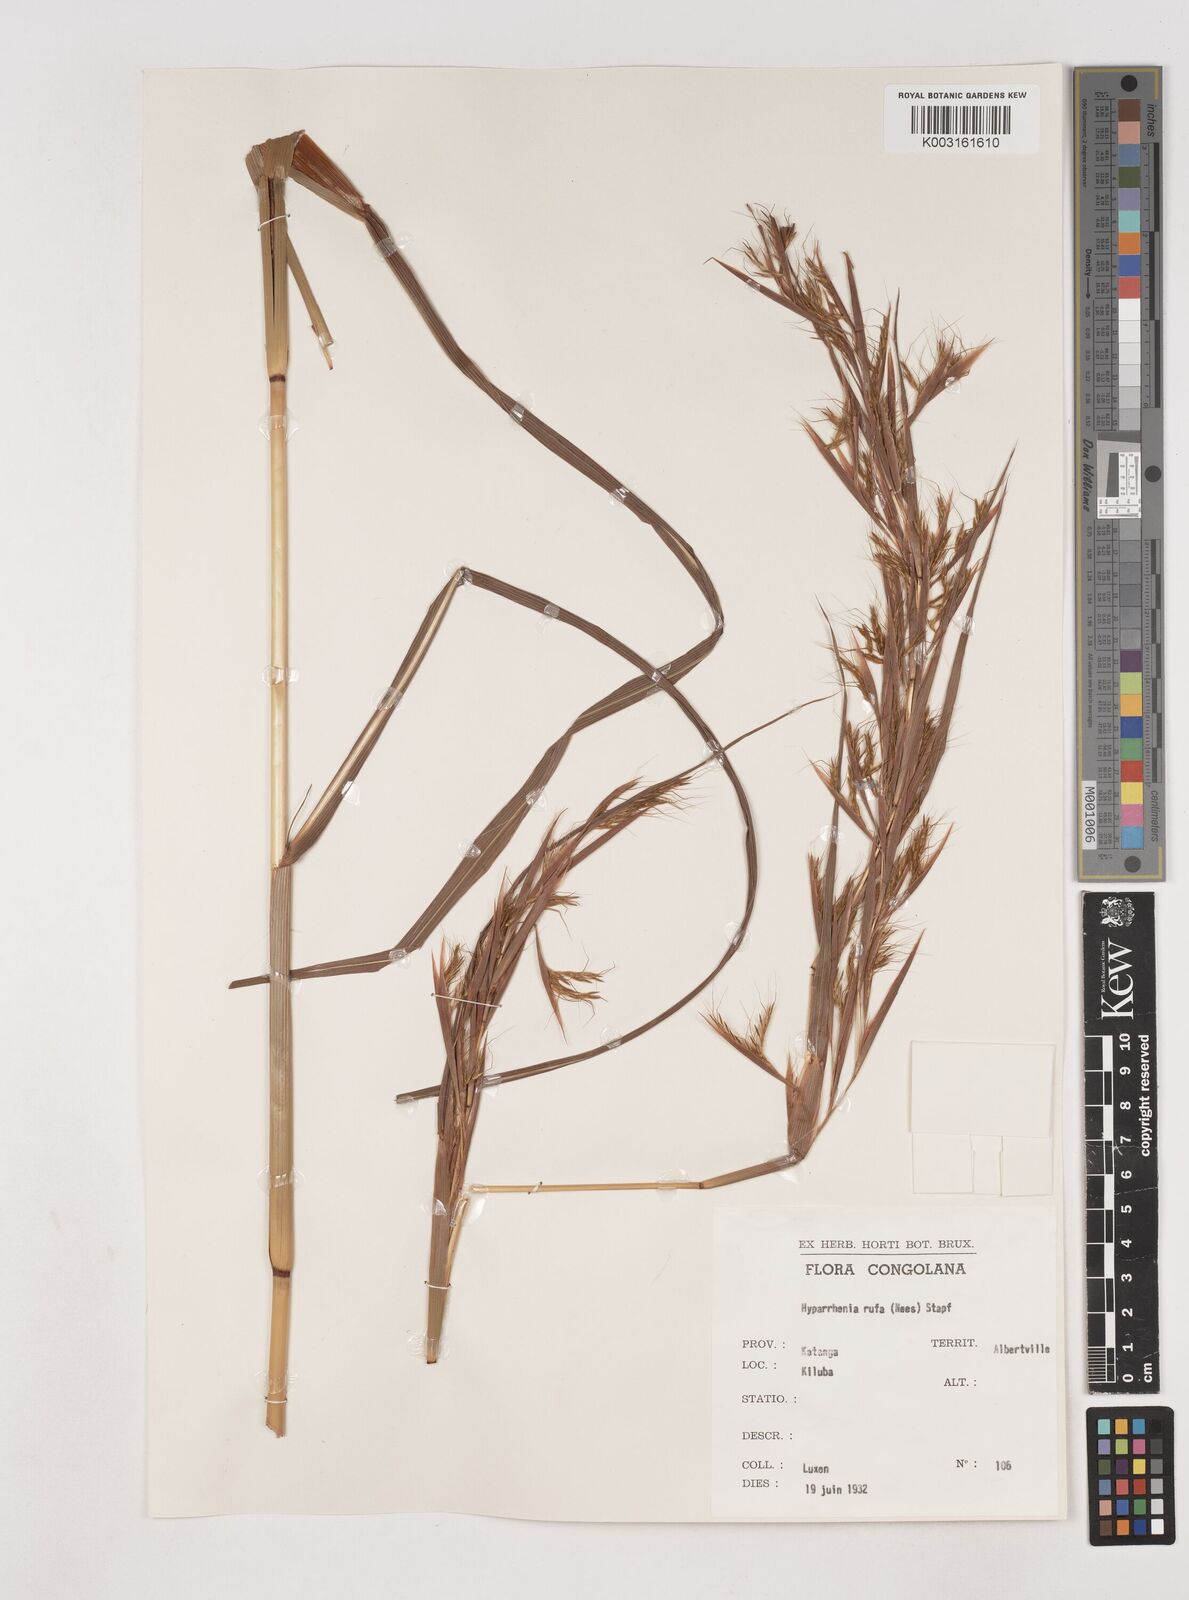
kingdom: Plantae
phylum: Tracheophyta
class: Liliopsida
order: Poales
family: Poaceae
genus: Hyparrhenia
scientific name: Hyparrhenia rufa
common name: Jaraguagrass
